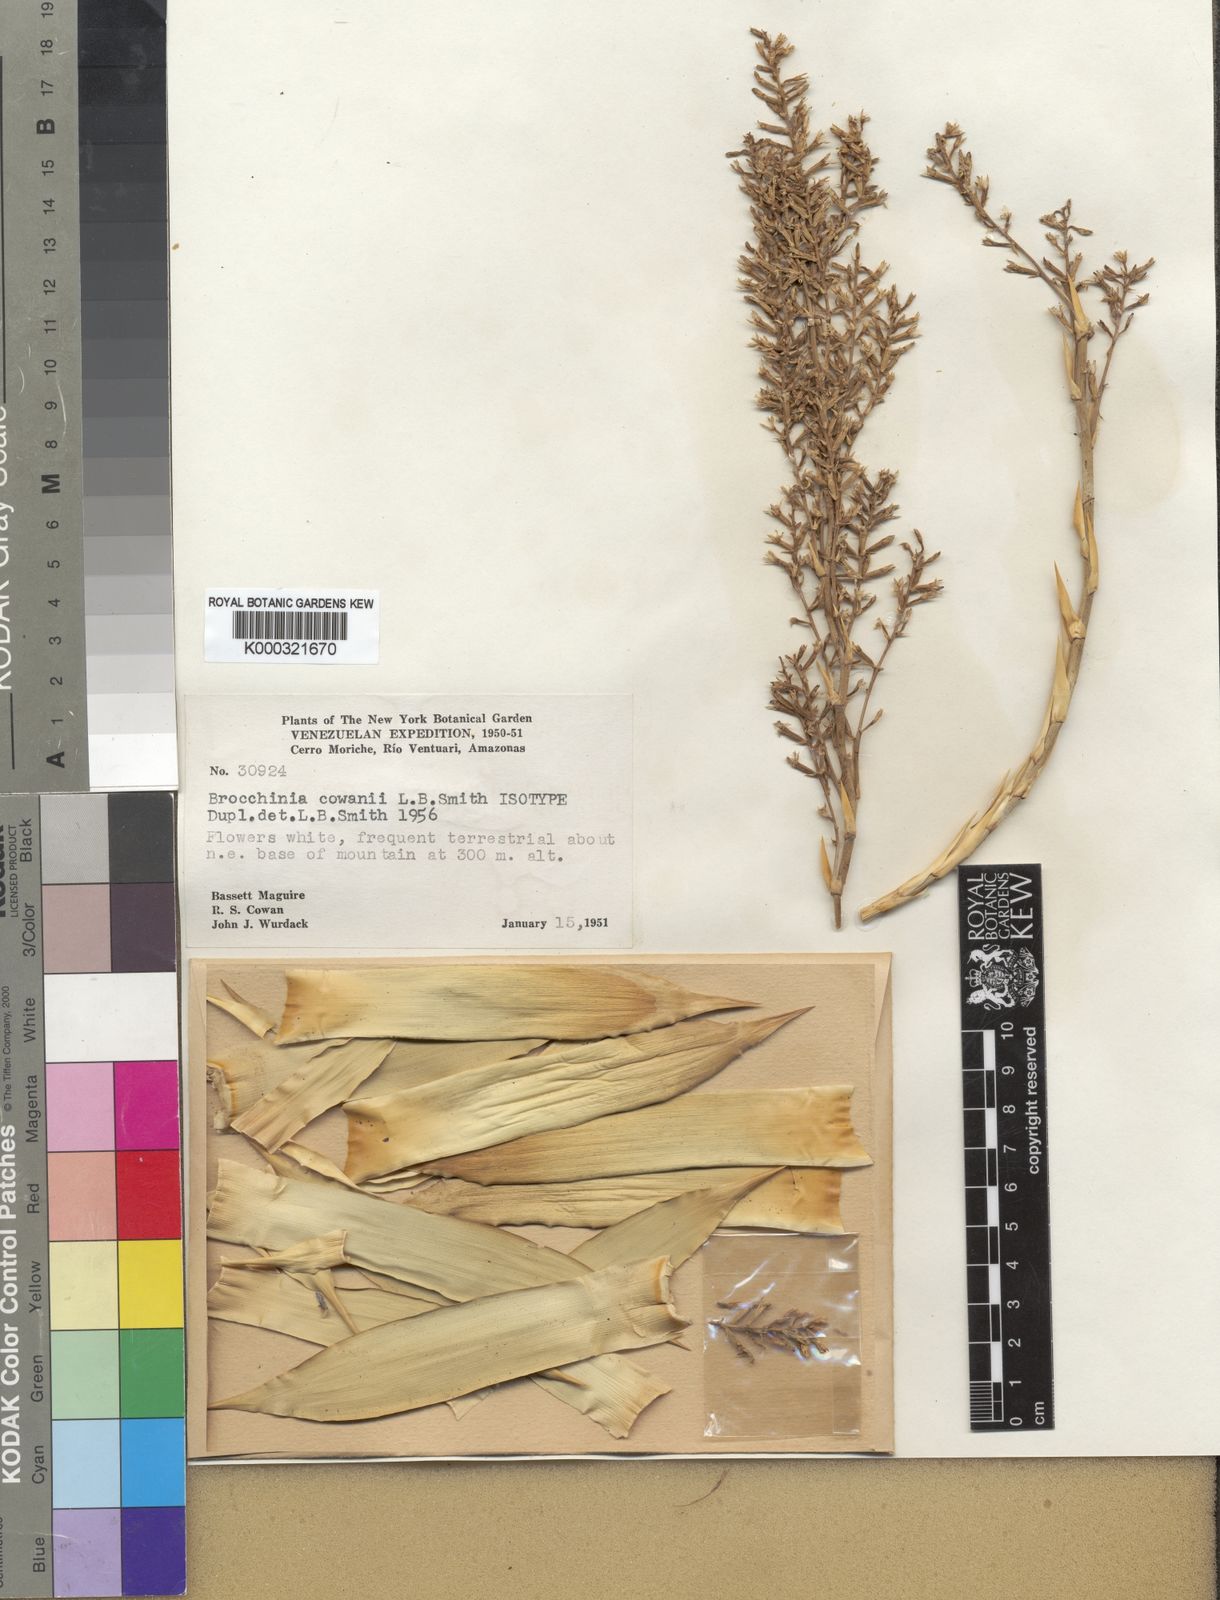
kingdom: Plantae
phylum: Tracheophyta
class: Liliopsida
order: Poales
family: Bromeliaceae
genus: Brocchinia
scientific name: Brocchinia cowanii
